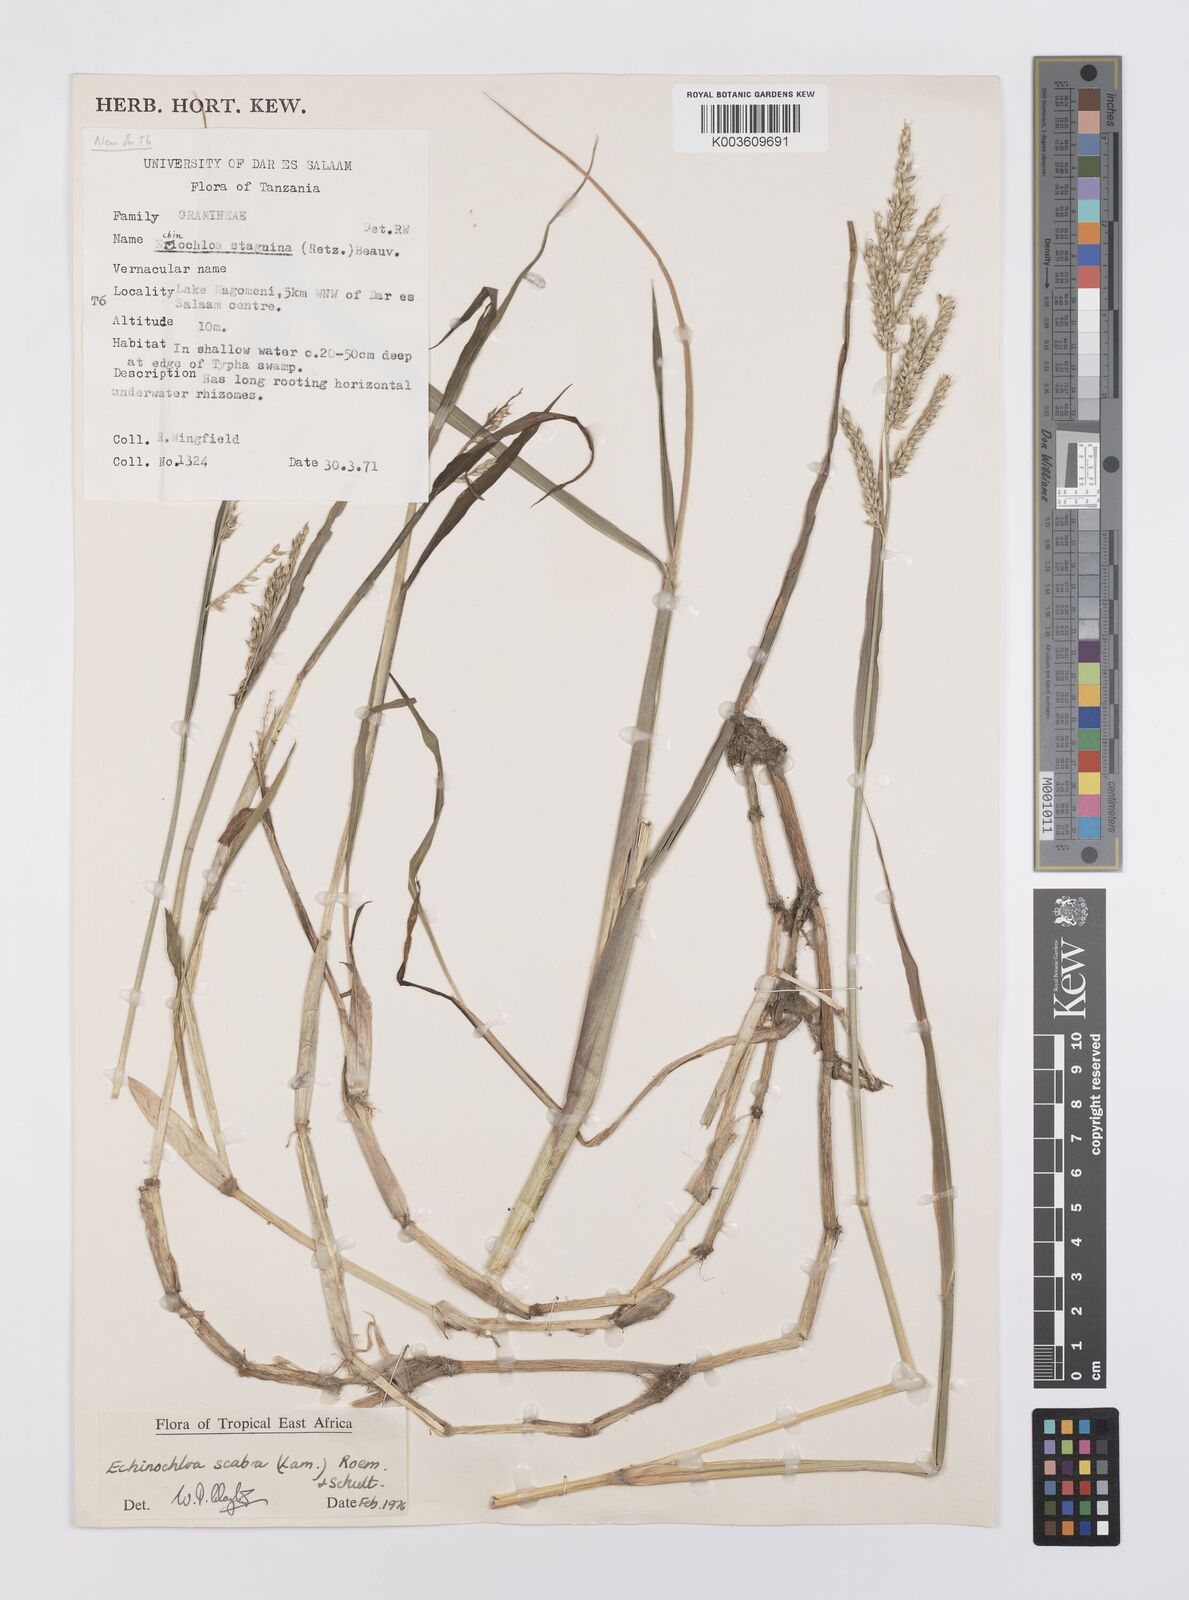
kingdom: Plantae
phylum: Tracheophyta
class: Liliopsida
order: Poales
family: Poaceae
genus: Echinochloa
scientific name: Echinochloa stagnina
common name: Burgu grass
